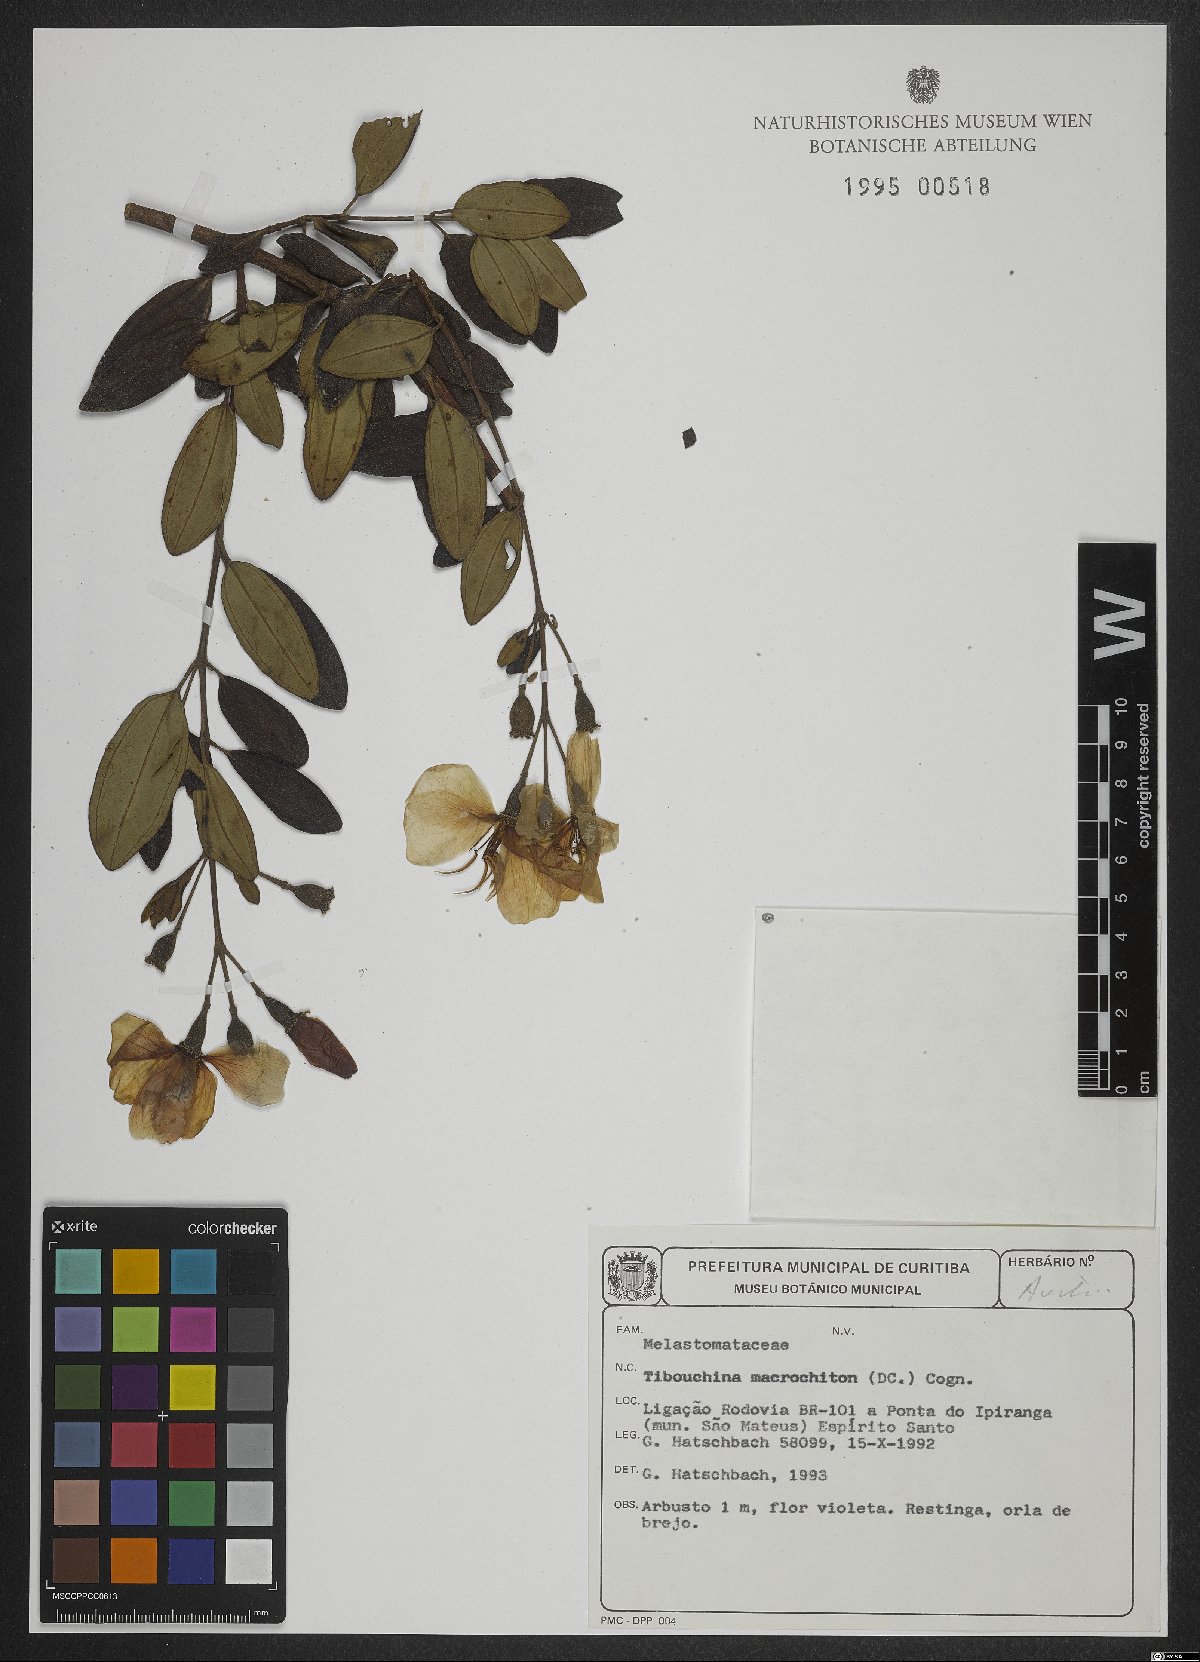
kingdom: Plantae
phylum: Tracheophyta
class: Magnoliopsida
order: Myrtales
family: Melastomataceae
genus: Pleroma
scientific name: Pleroma macrochiton
